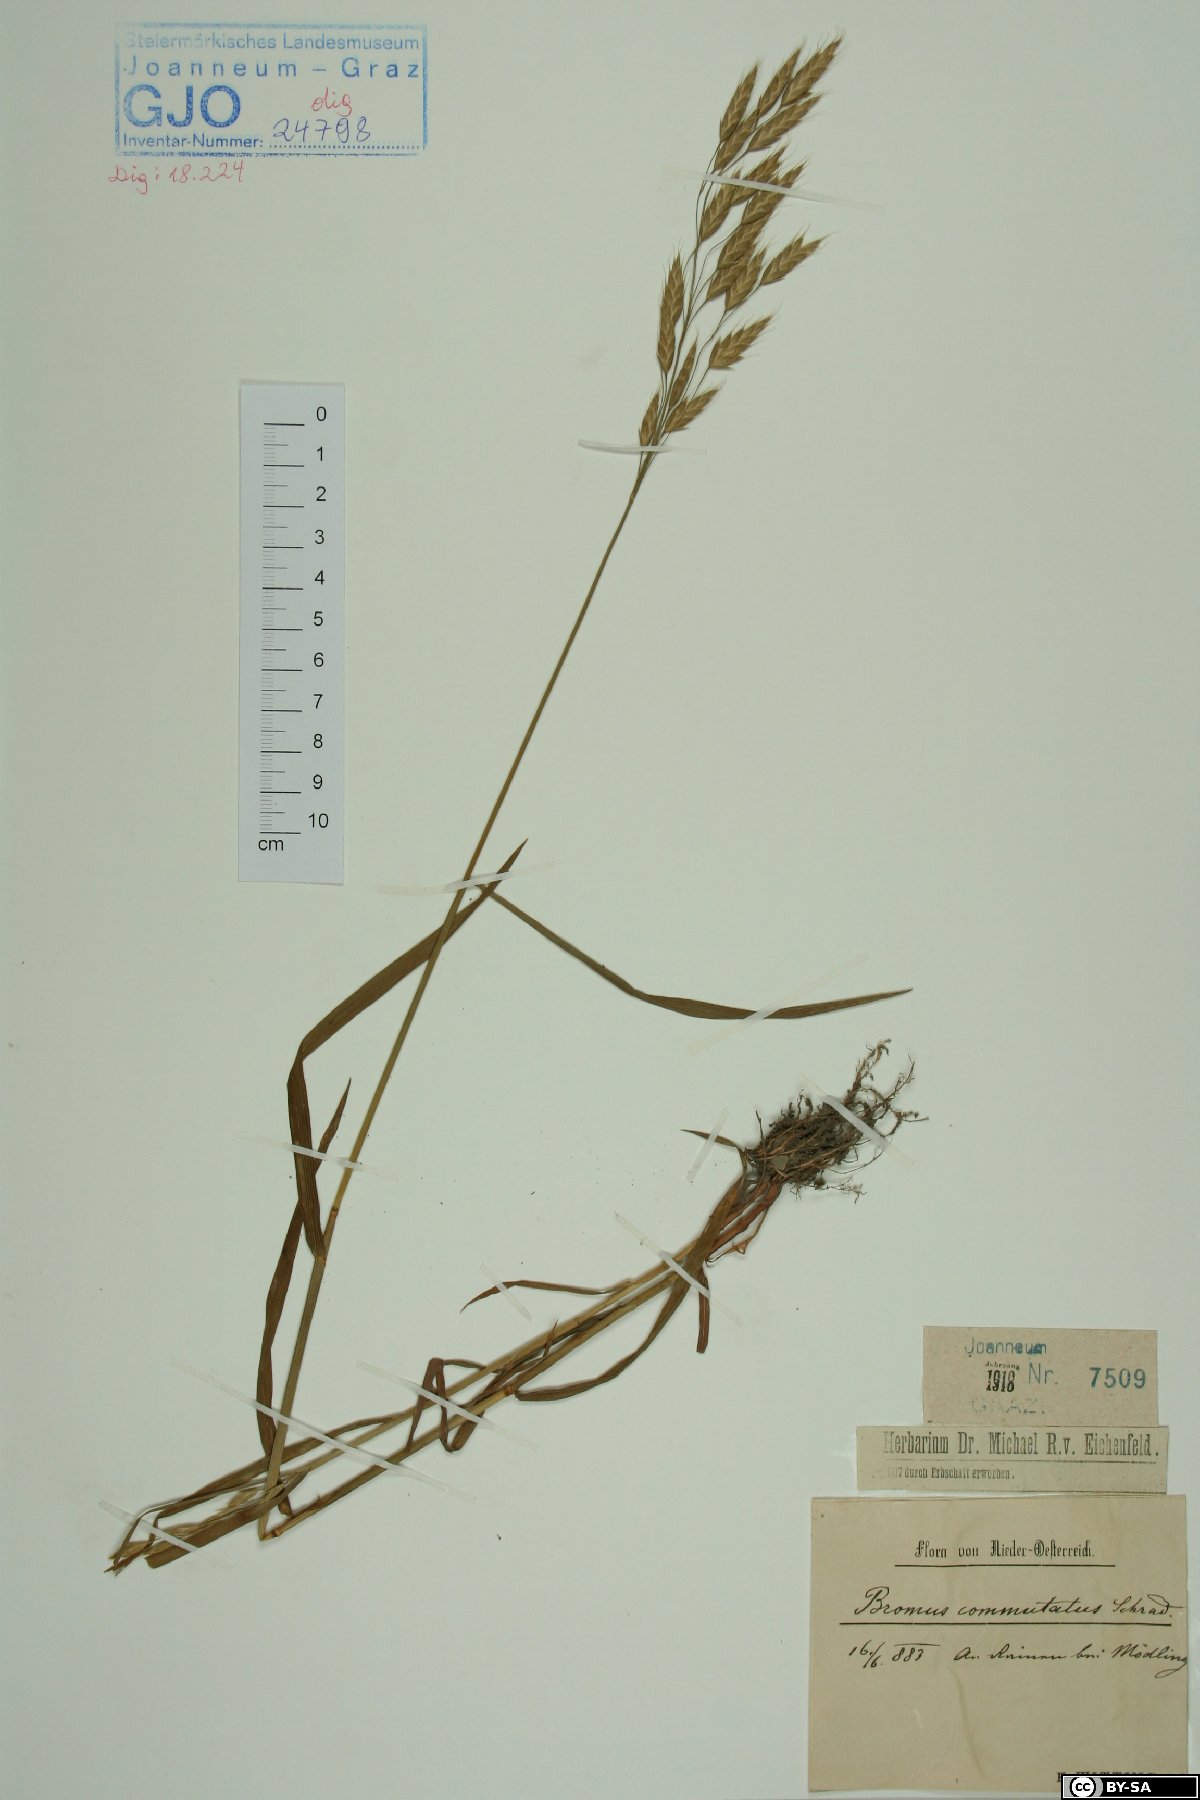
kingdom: Plantae
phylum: Tracheophyta
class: Liliopsida
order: Poales
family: Poaceae
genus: Bromus
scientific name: Bromus commutatus
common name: Meadow brome
